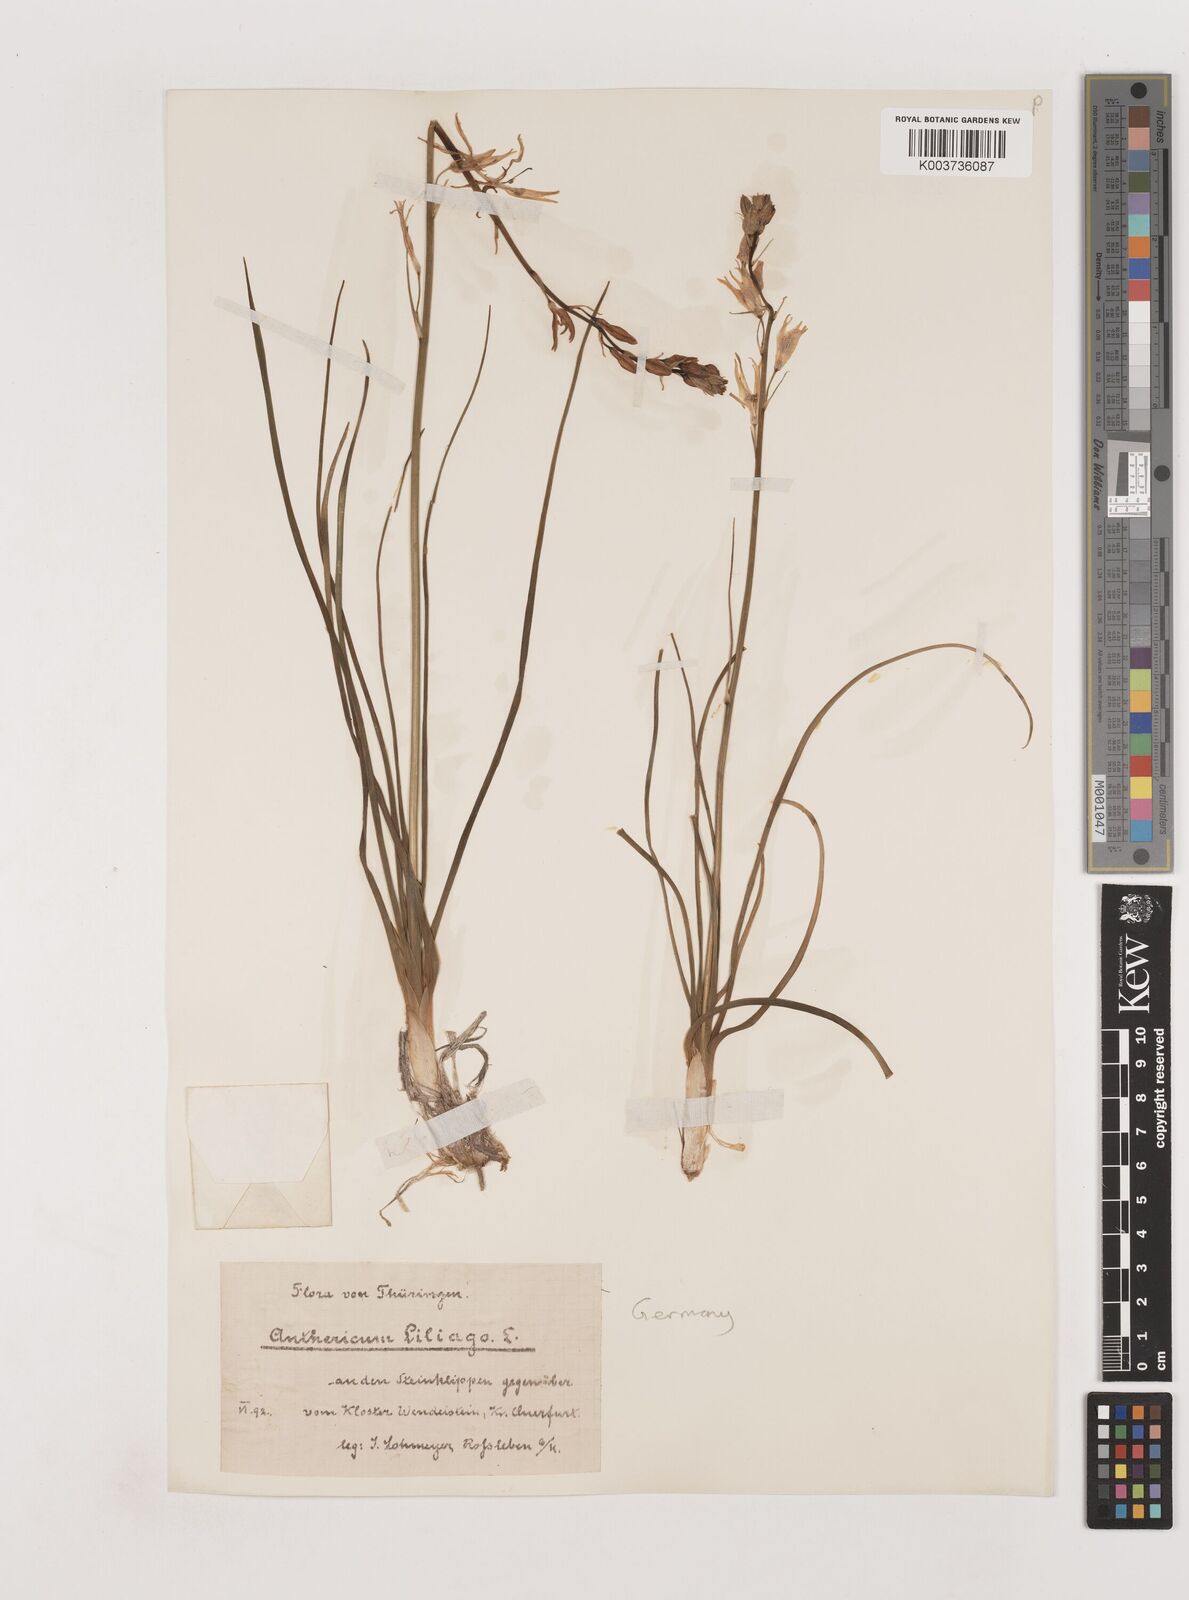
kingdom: Plantae
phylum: Tracheophyta
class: Liliopsida
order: Asparagales
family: Asparagaceae
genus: Anthericum
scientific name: Anthericum liliago
